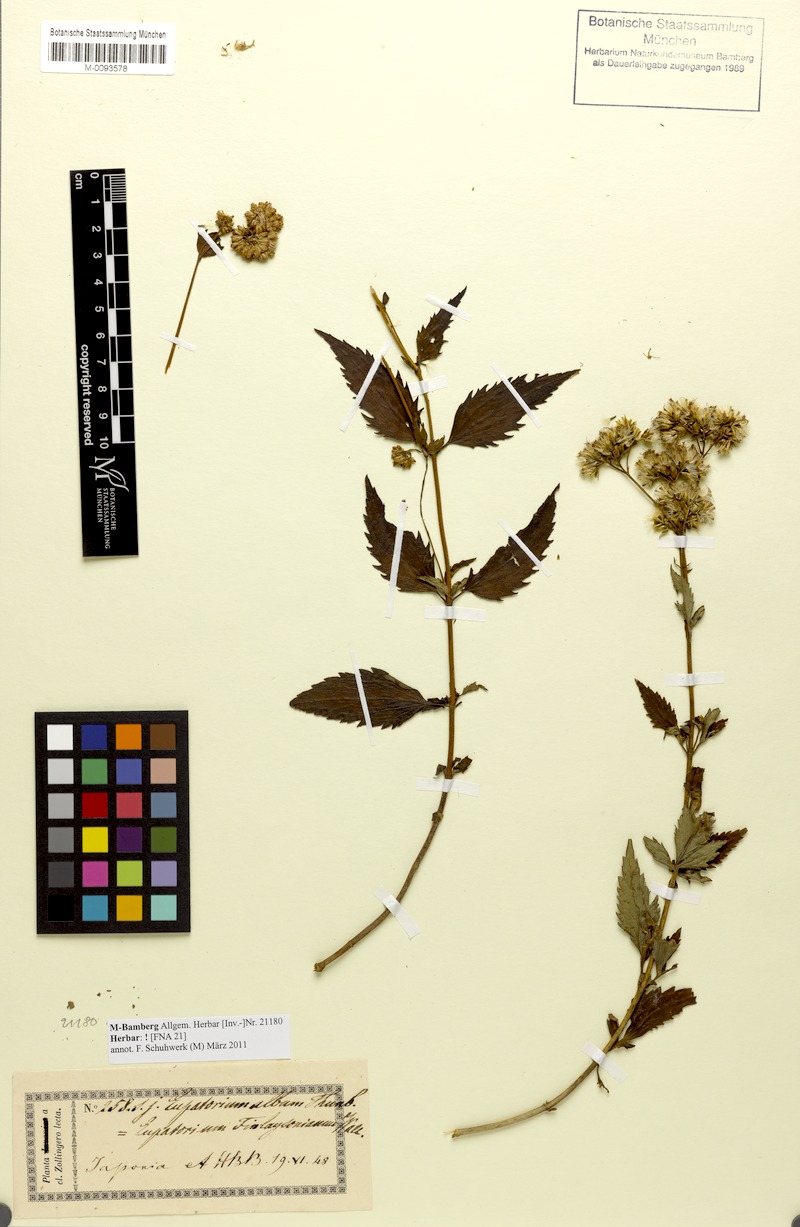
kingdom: Plantae
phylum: Tracheophyta
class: Magnoliopsida
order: Asterales
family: Asteraceae
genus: Eupatorium
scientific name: Eupatorium chinense
